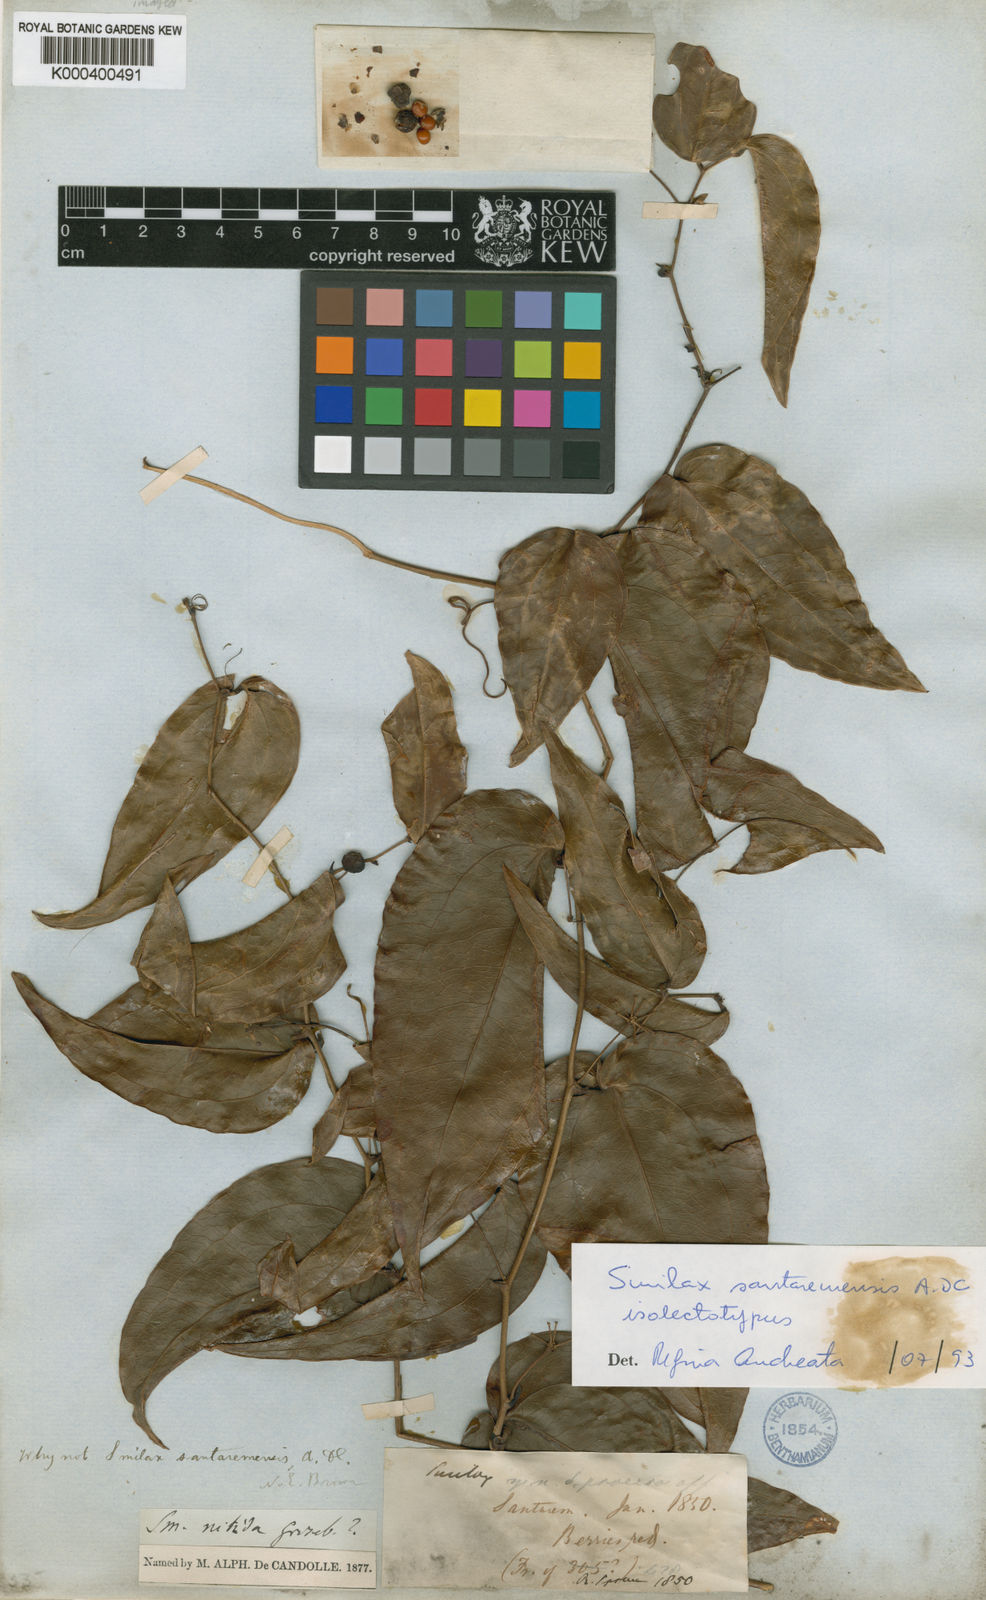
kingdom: Plantae
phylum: Tracheophyta
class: Liliopsida
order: Liliales
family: Smilacaceae
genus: Smilax
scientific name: Smilax santaremensis
